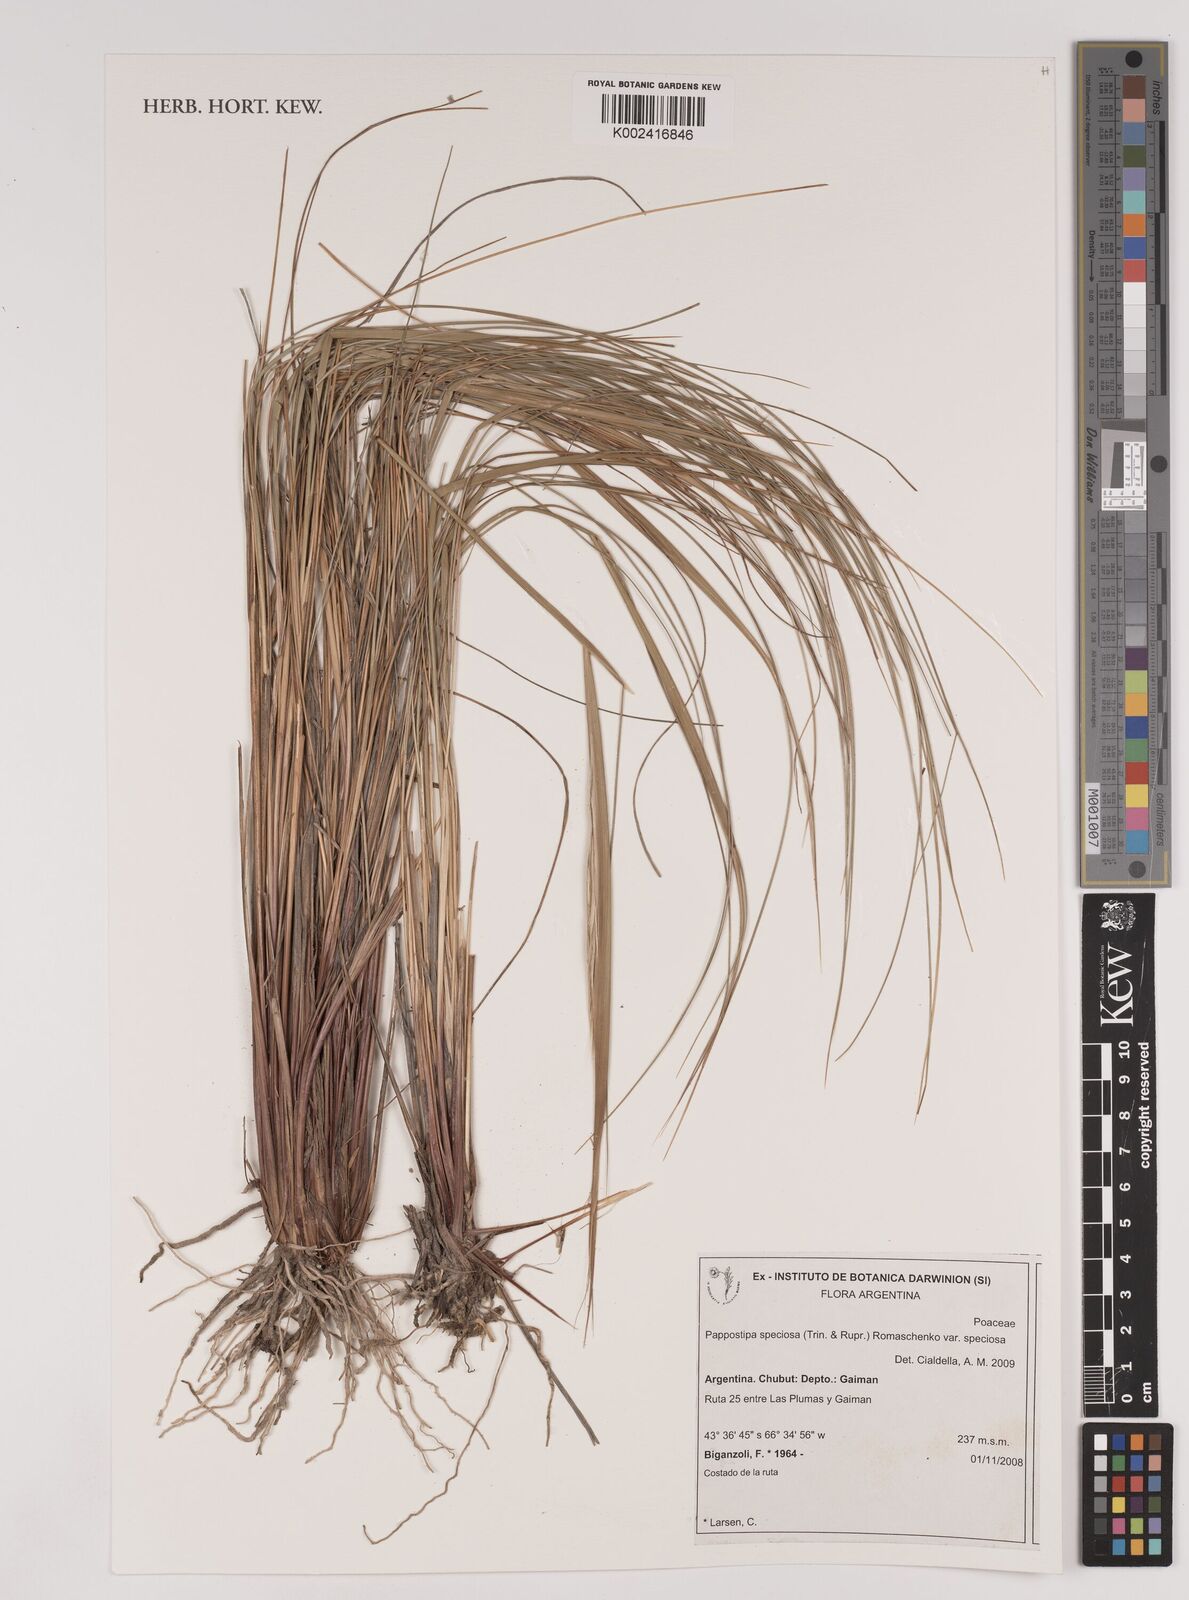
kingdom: Plantae
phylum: Tracheophyta
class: Liliopsida
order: Poales
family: Poaceae
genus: Pappostipa
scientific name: Pappostipa speciosa
